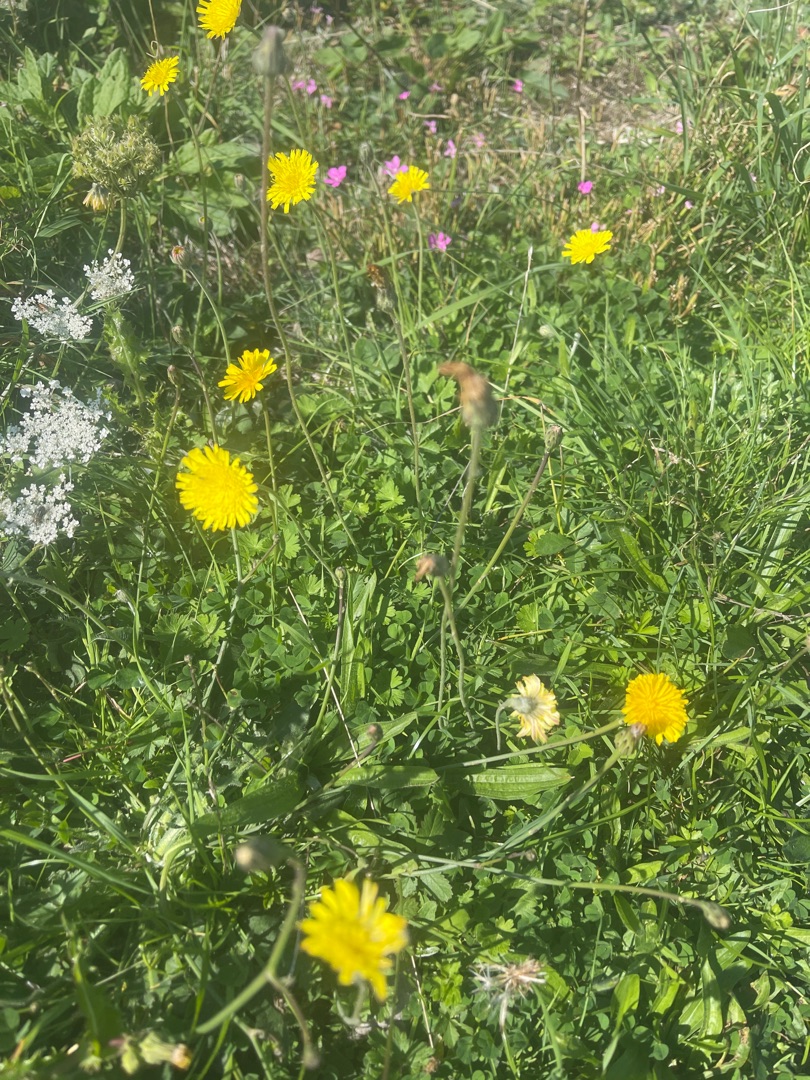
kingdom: Plantae
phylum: Tracheophyta
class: Magnoliopsida
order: Asterales
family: Asteraceae
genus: Pilosella
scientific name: Pilosella officinarum
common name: Håret høgeurt
